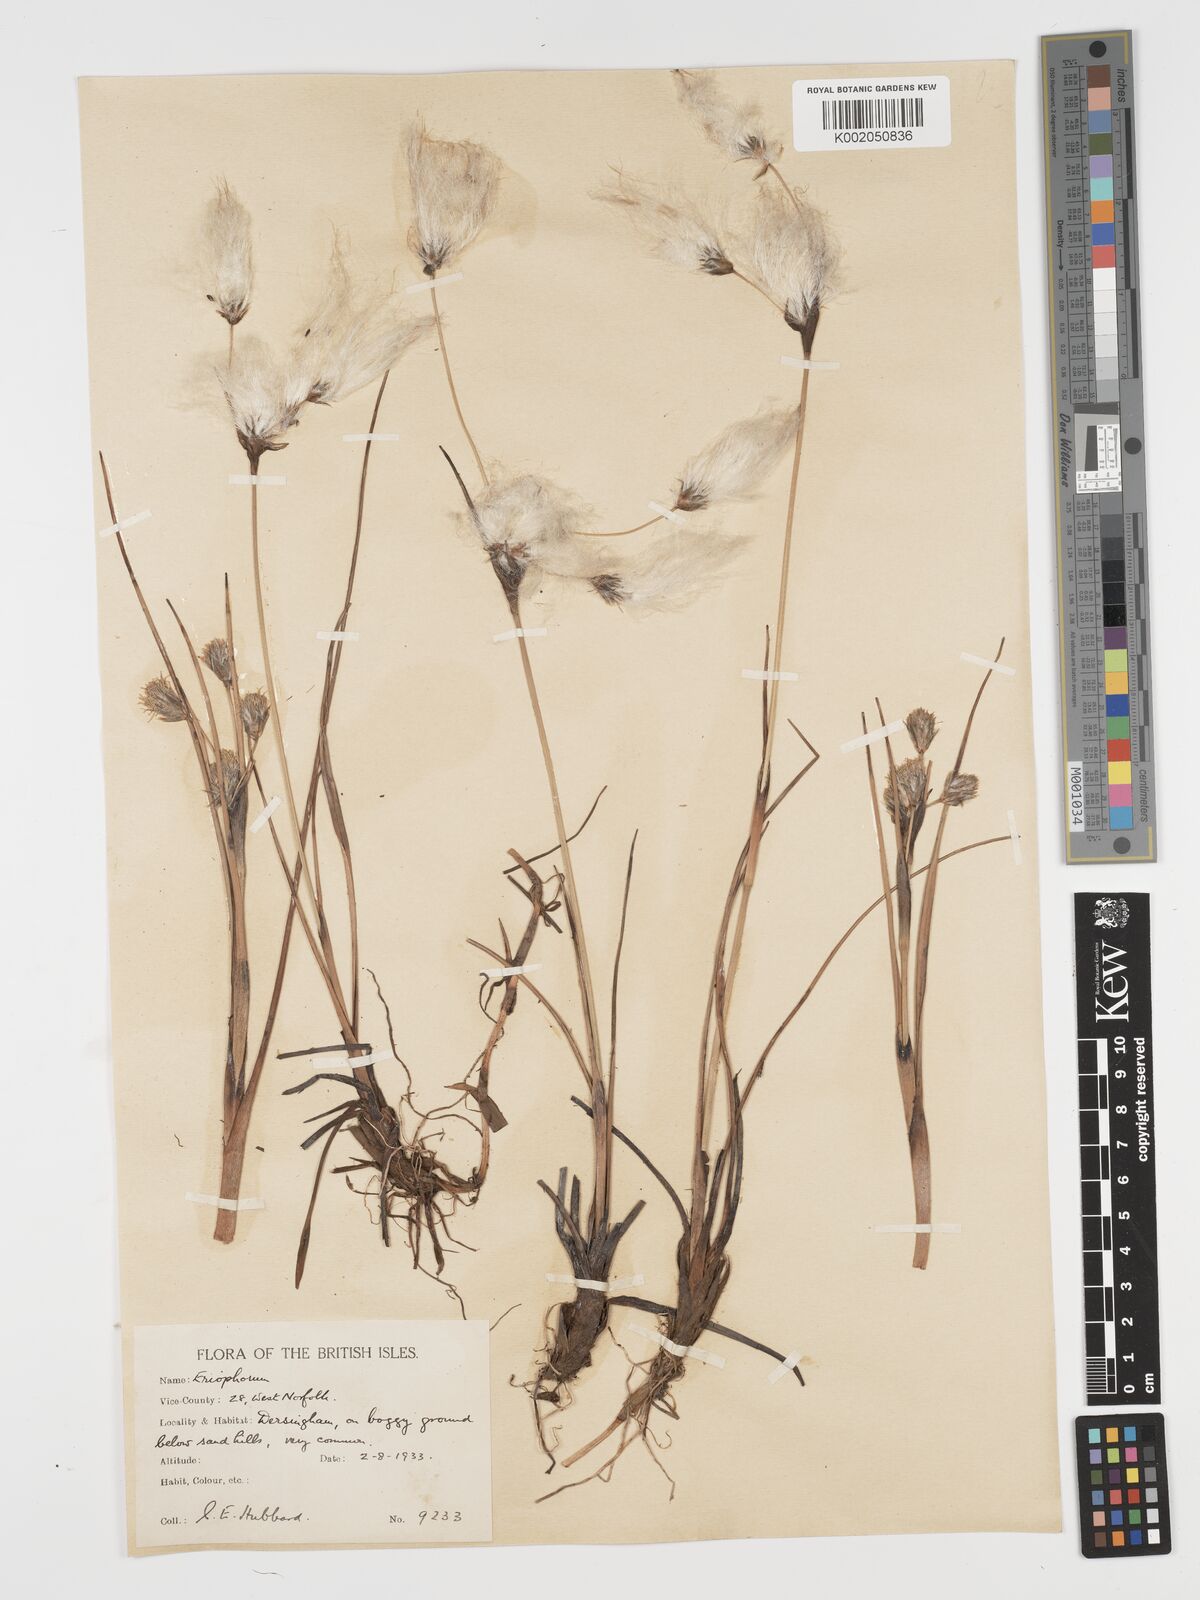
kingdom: Plantae
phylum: Tracheophyta
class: Liliopsida
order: Poales
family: Cyperaceae
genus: Eriophorum
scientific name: Eriophorum angustifolium
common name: Common cottongrass
